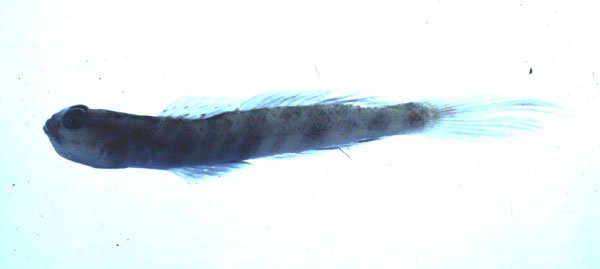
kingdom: Animalia
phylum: Chordata
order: Perciformes
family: Gobiidae
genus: Vanderhorstia
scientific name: Vanderhorstia delagoae
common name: Candystick goby
